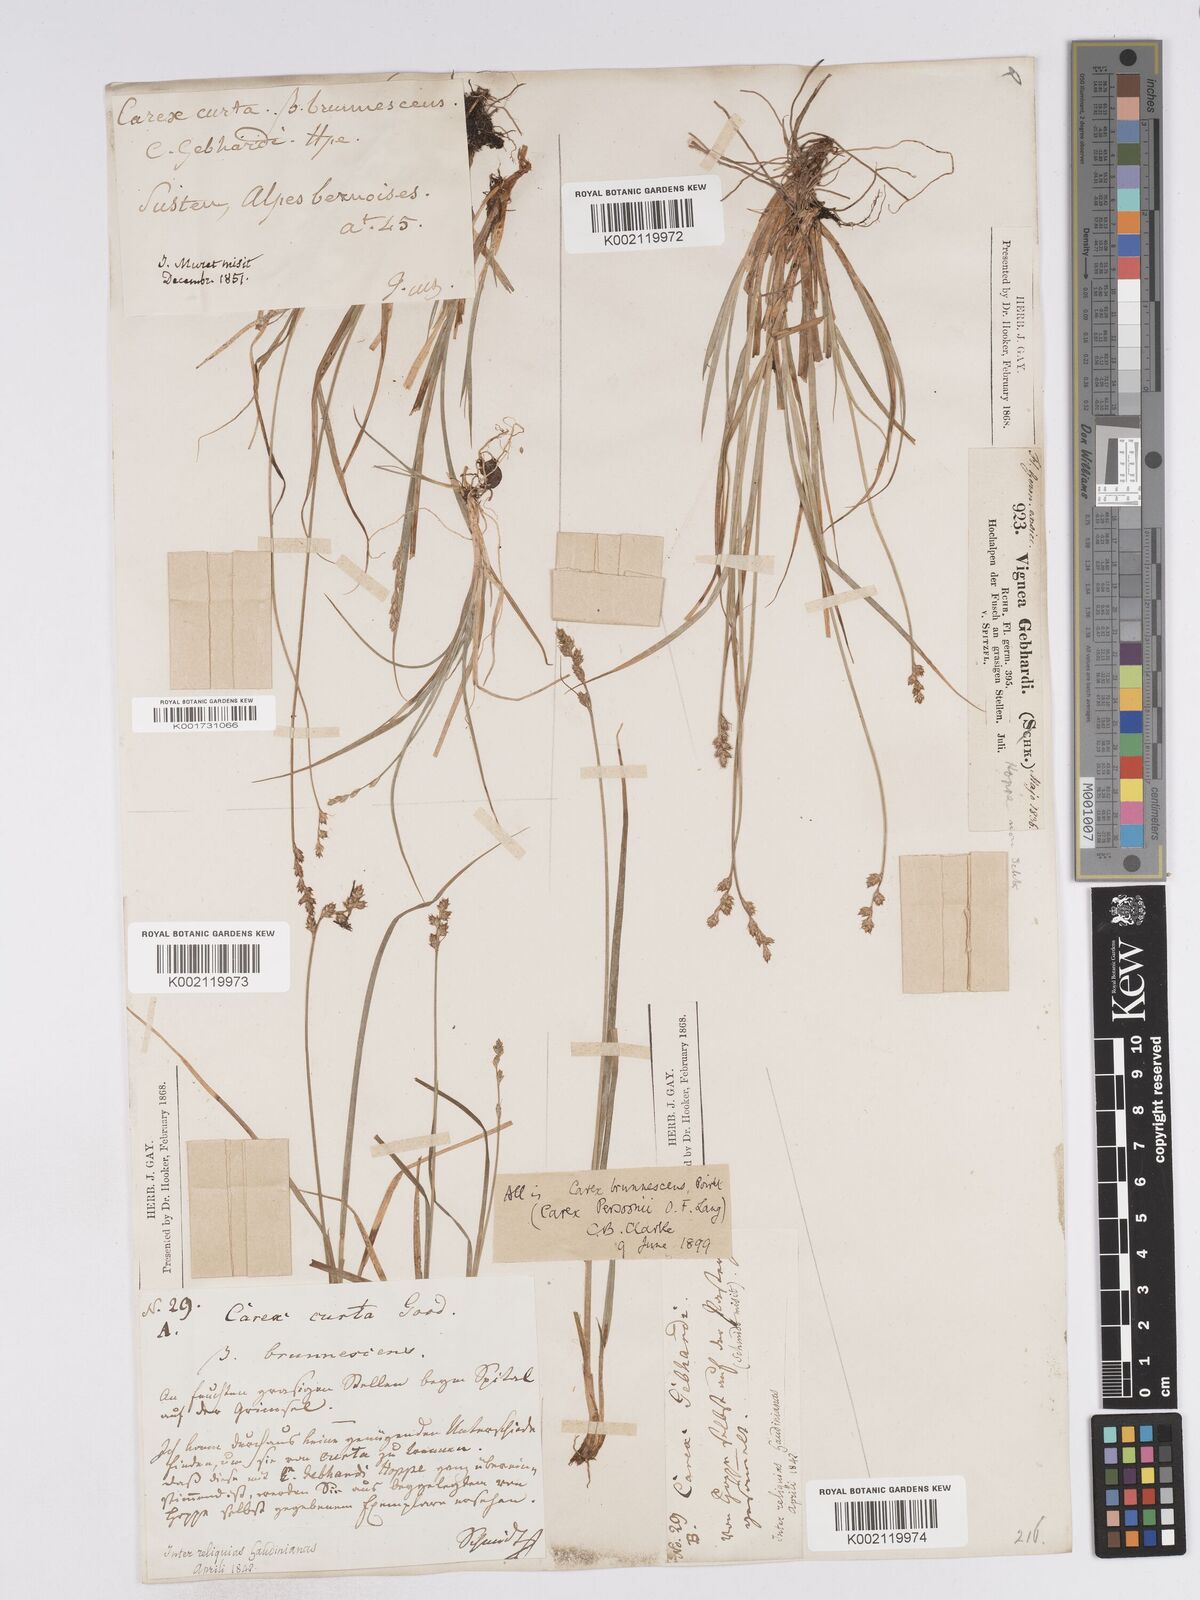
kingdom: Plantae
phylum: Tracheophyta
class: Liliopsida
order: Poales
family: Cyperaceae
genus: Carex
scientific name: Carex canescens
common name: White sedge
